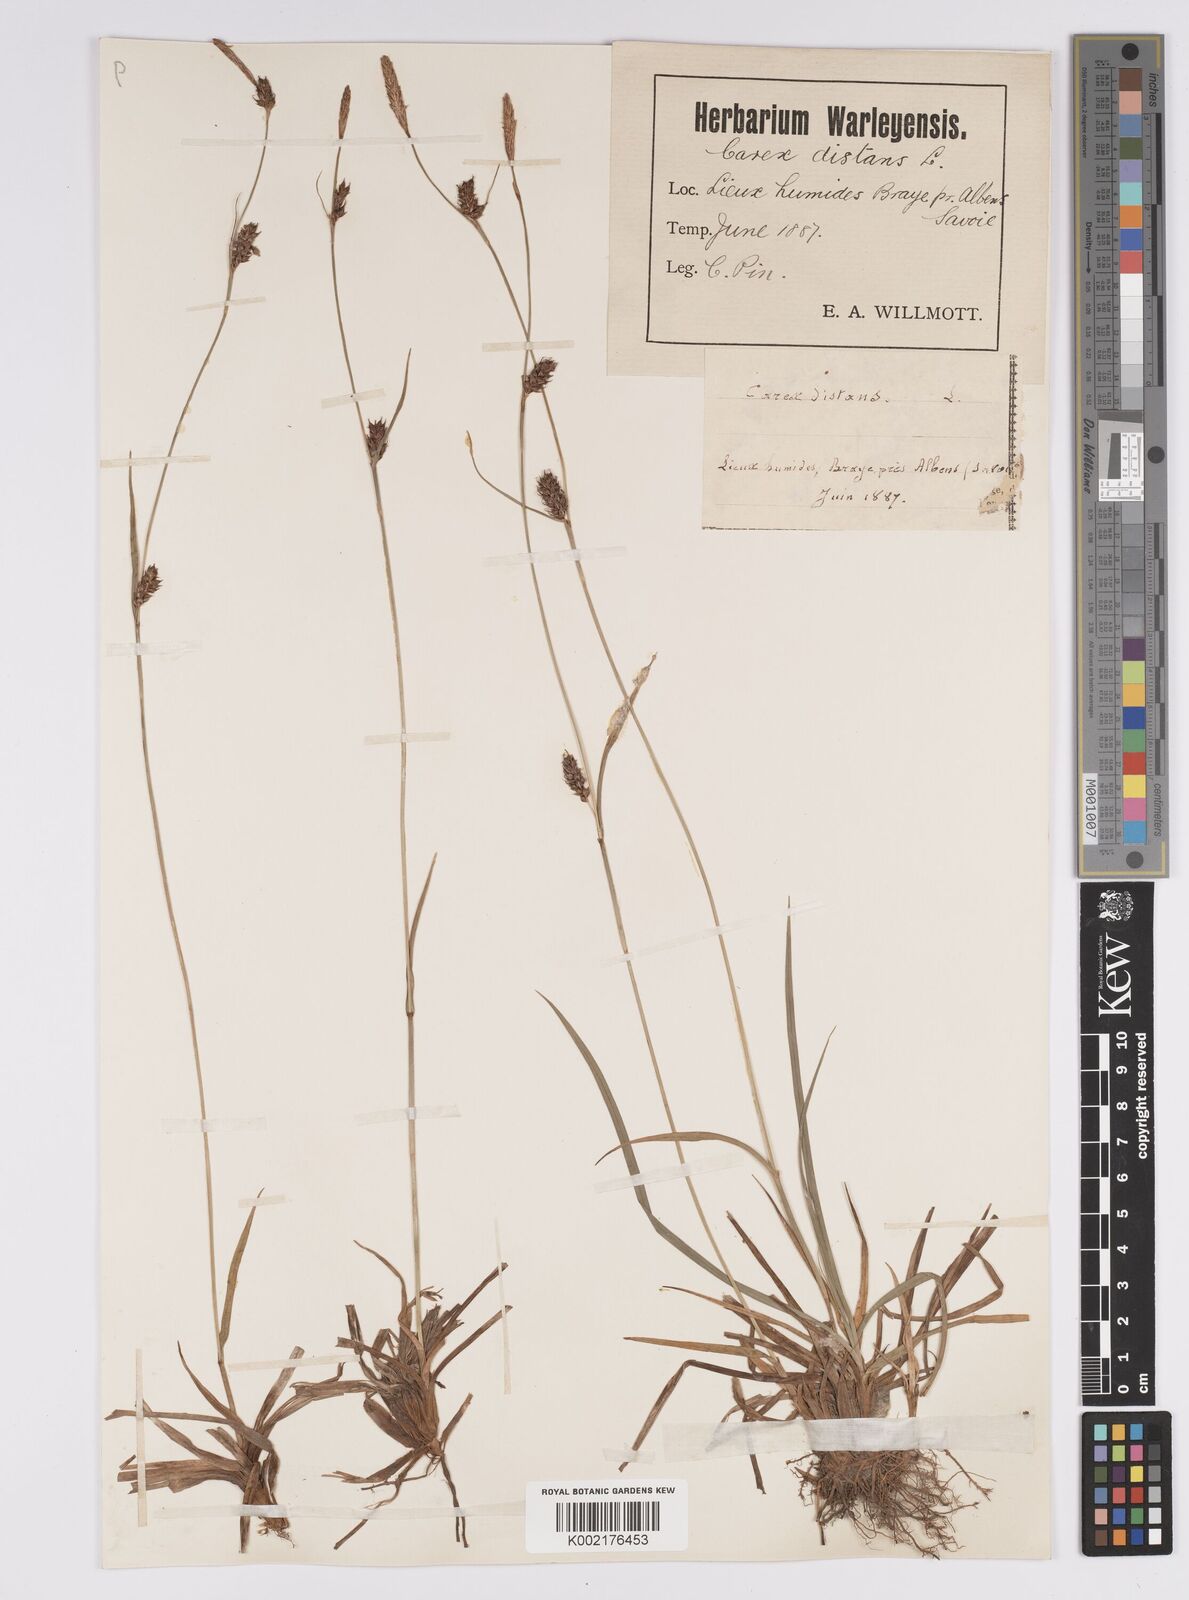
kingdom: Plantae
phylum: Tracheophyta
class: Liliopsida
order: Poales
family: Cyperaceae
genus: Carex
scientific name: Carex distans
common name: Distant sedge
